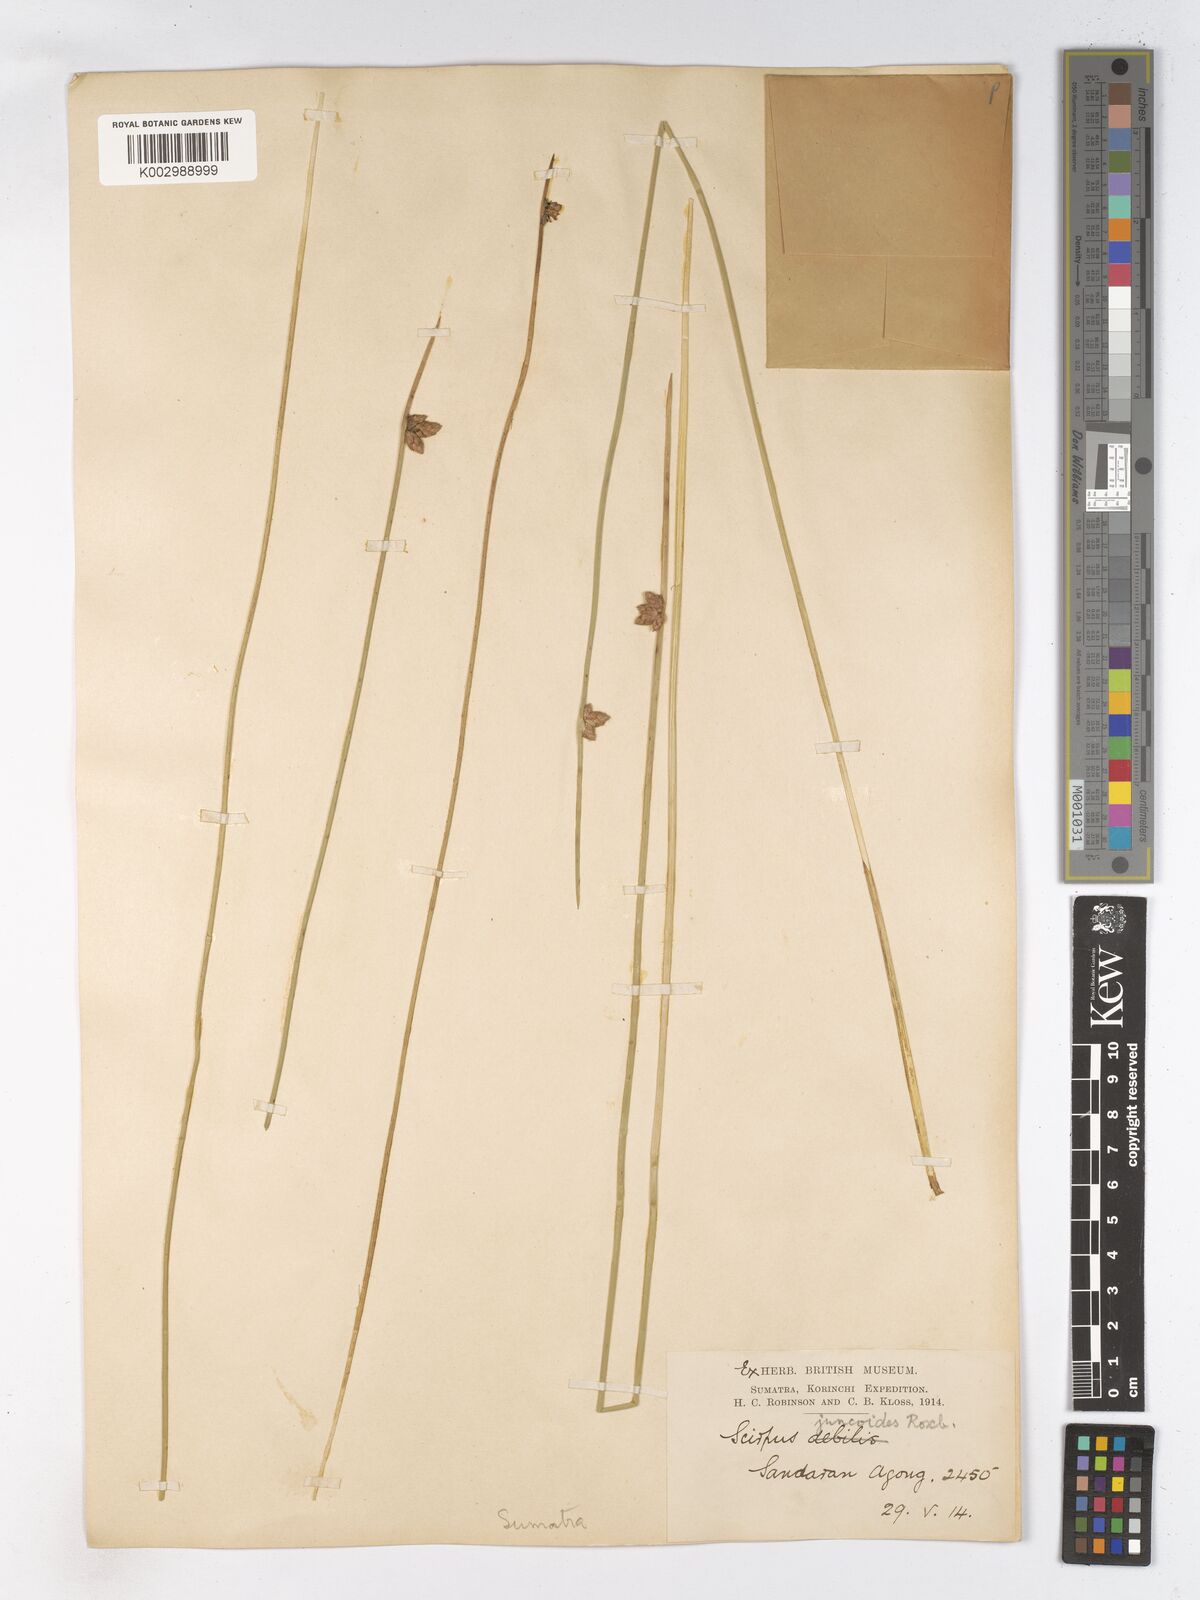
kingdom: Plantae
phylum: Tracheophyta
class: Liliopsida
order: Poales
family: Cyperaceae
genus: Schoenoplectiella
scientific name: Schoenoplectiella juncoides
